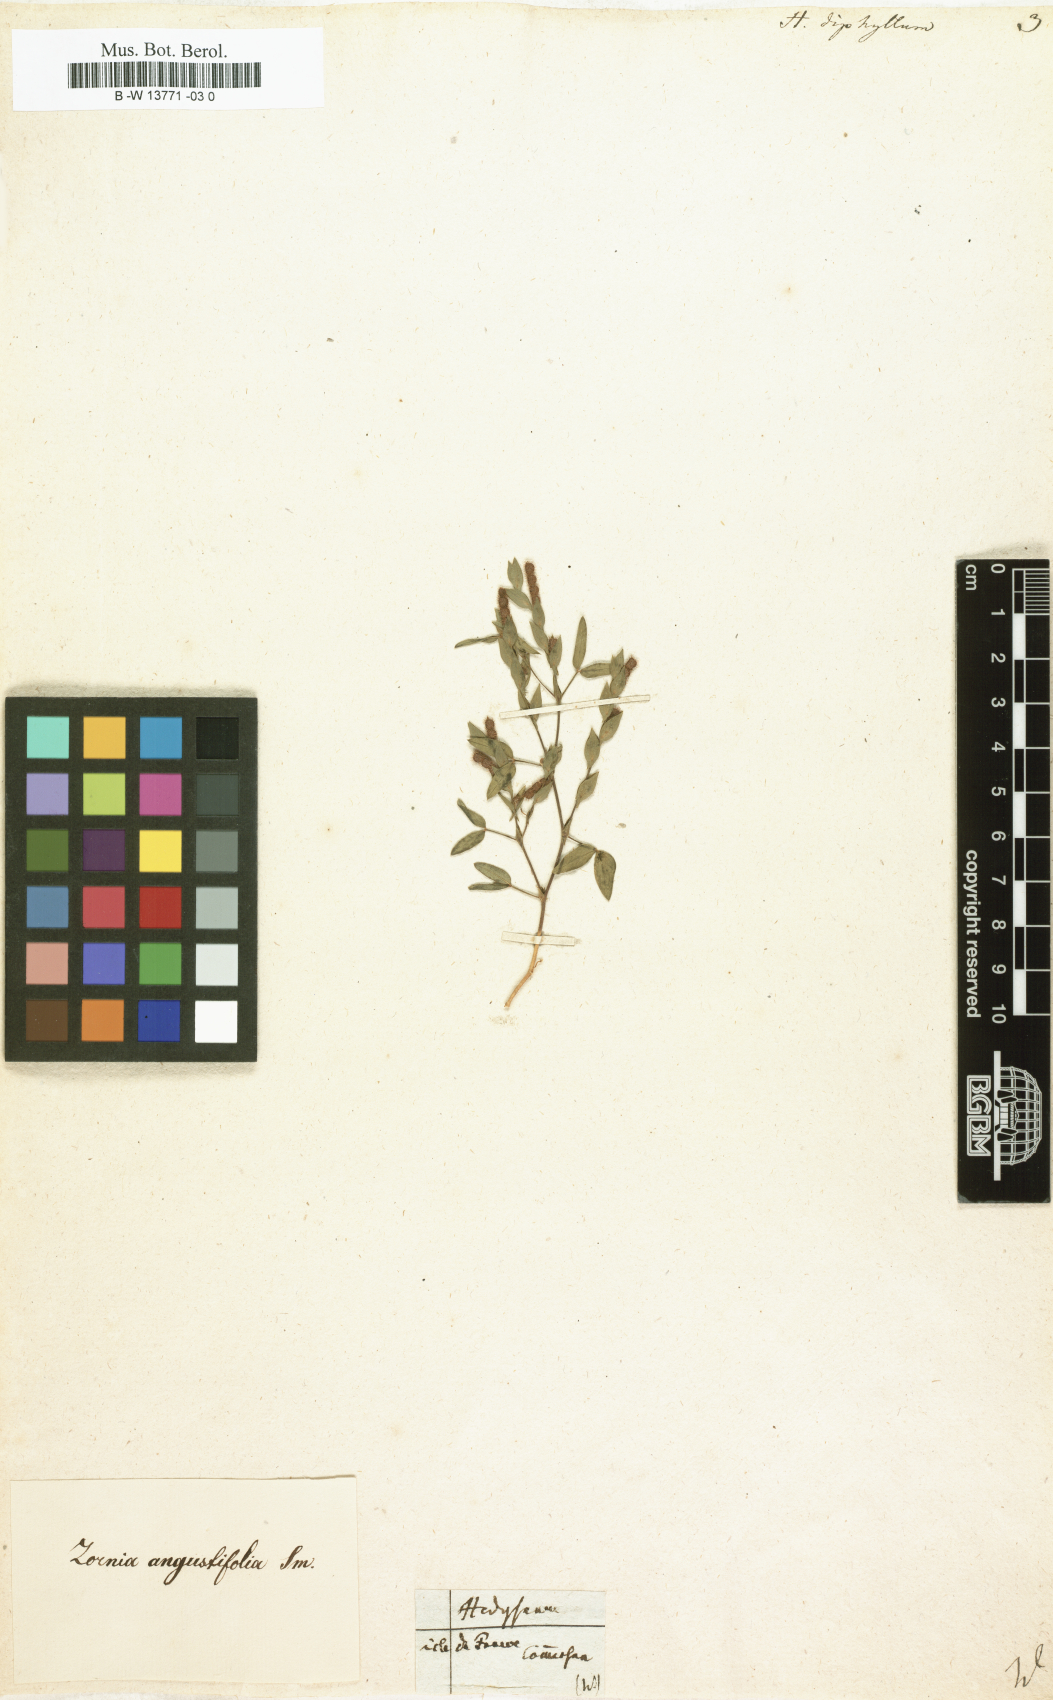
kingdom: Plantae
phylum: Tracheophyta
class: Magnoliopsida
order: Fabales
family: Fabaceae
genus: Zornia
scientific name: Zornia diphylla
